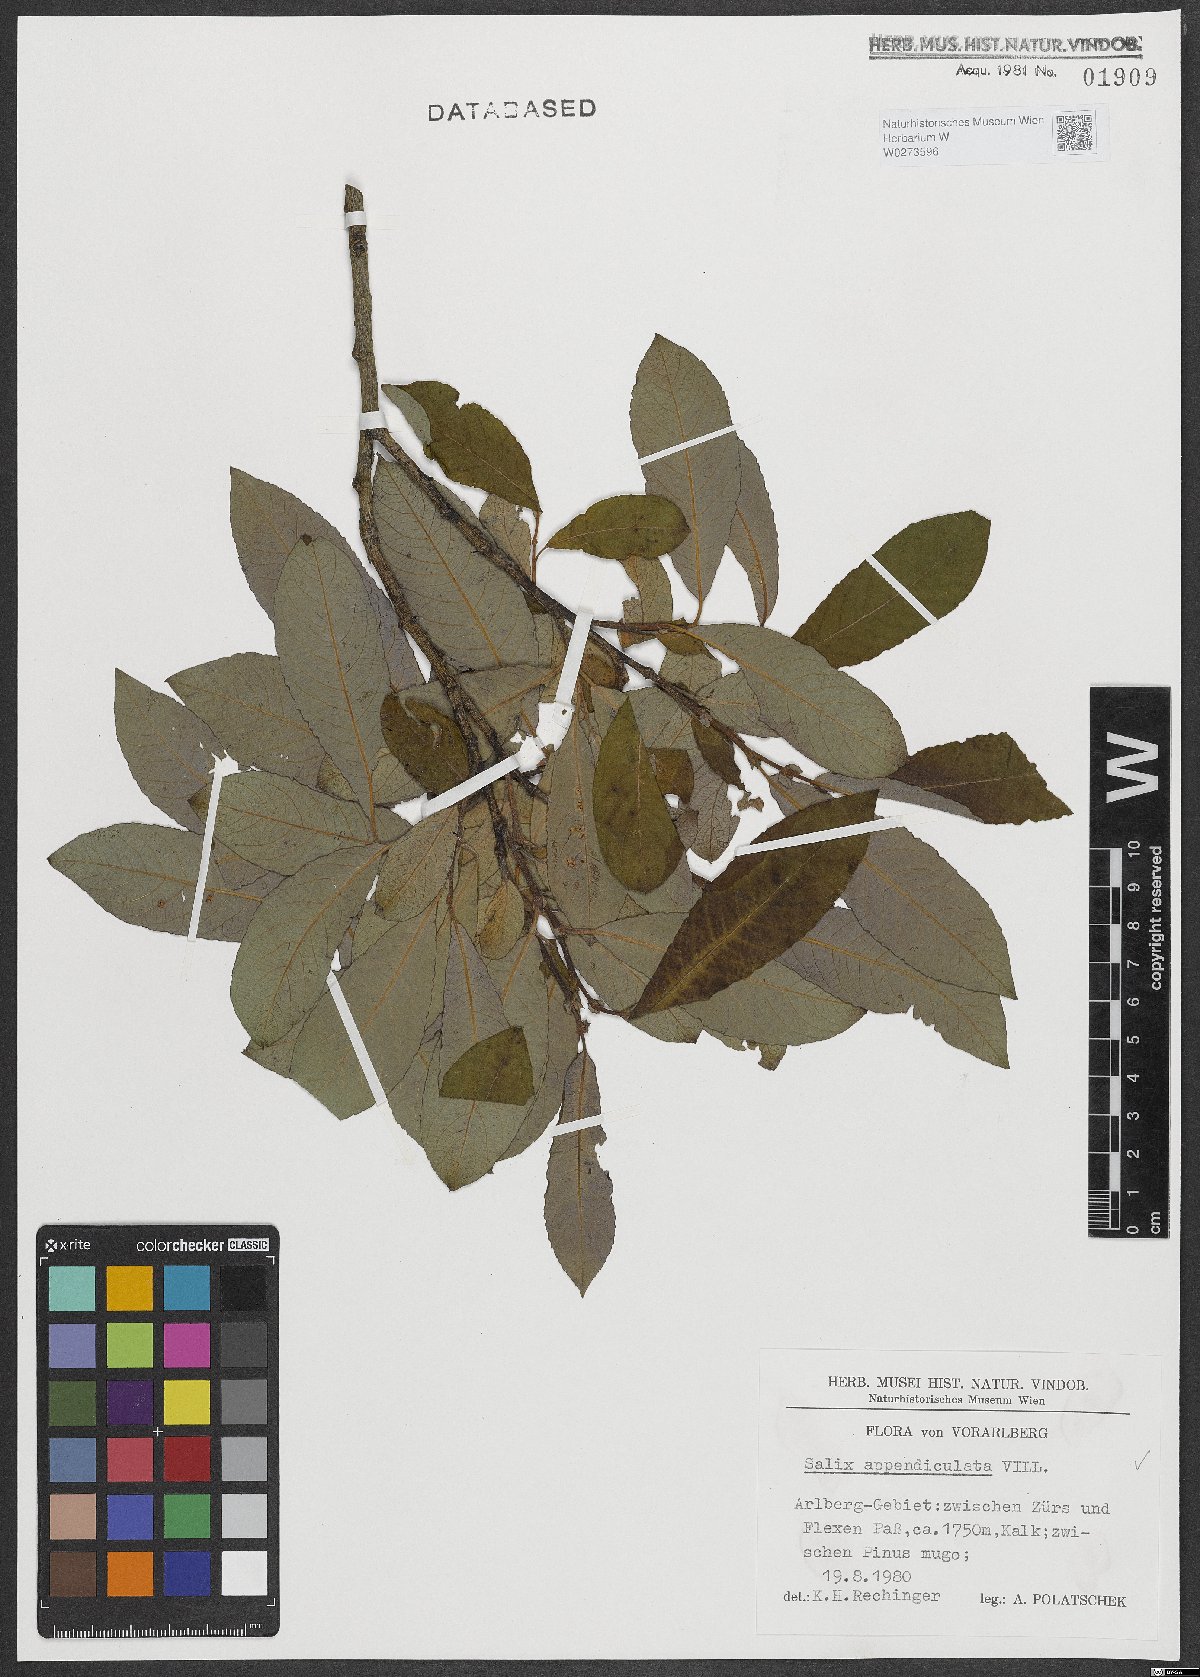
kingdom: Plantae
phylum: Tracheophyta
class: Magnoliopsida
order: Malpighiales
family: Salicaceae
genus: Salix
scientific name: Salix appendiculata
